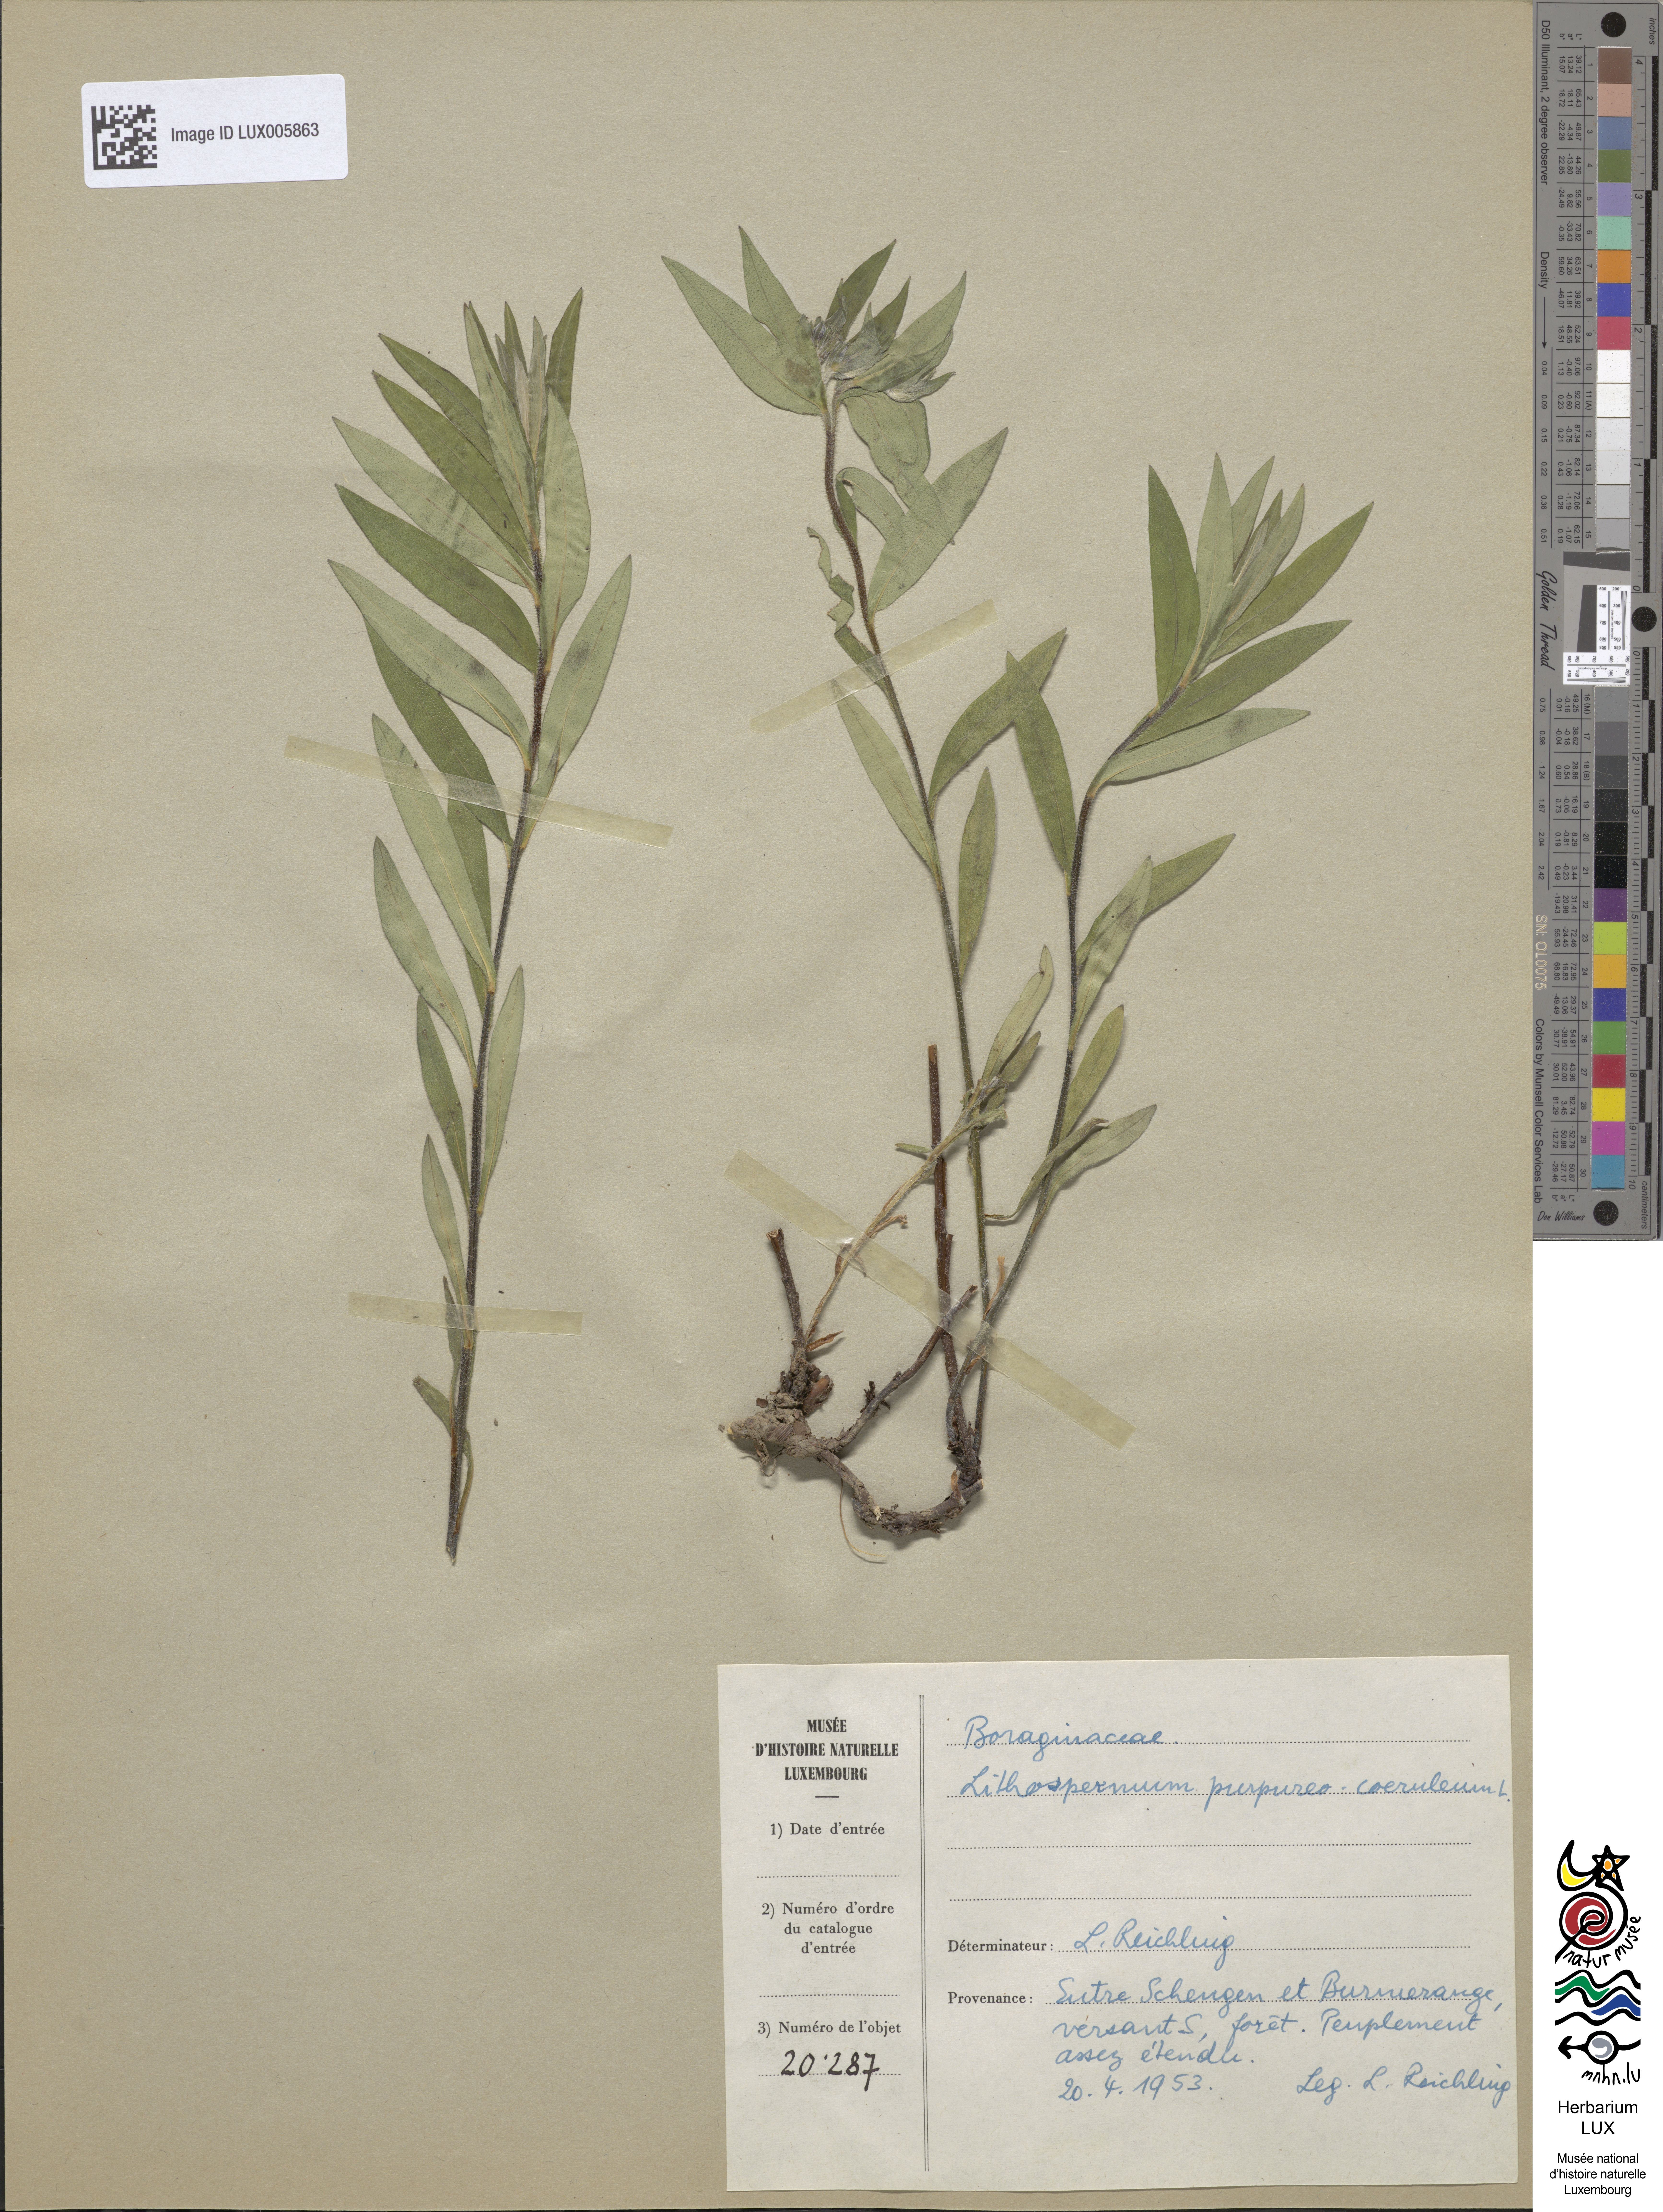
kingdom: Plantae
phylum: Tracheophyta
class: Magnoliopsida
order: Boraginales
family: Boraginaceae
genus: Aegonychon
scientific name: Aegonychon purpurocaeruleum
